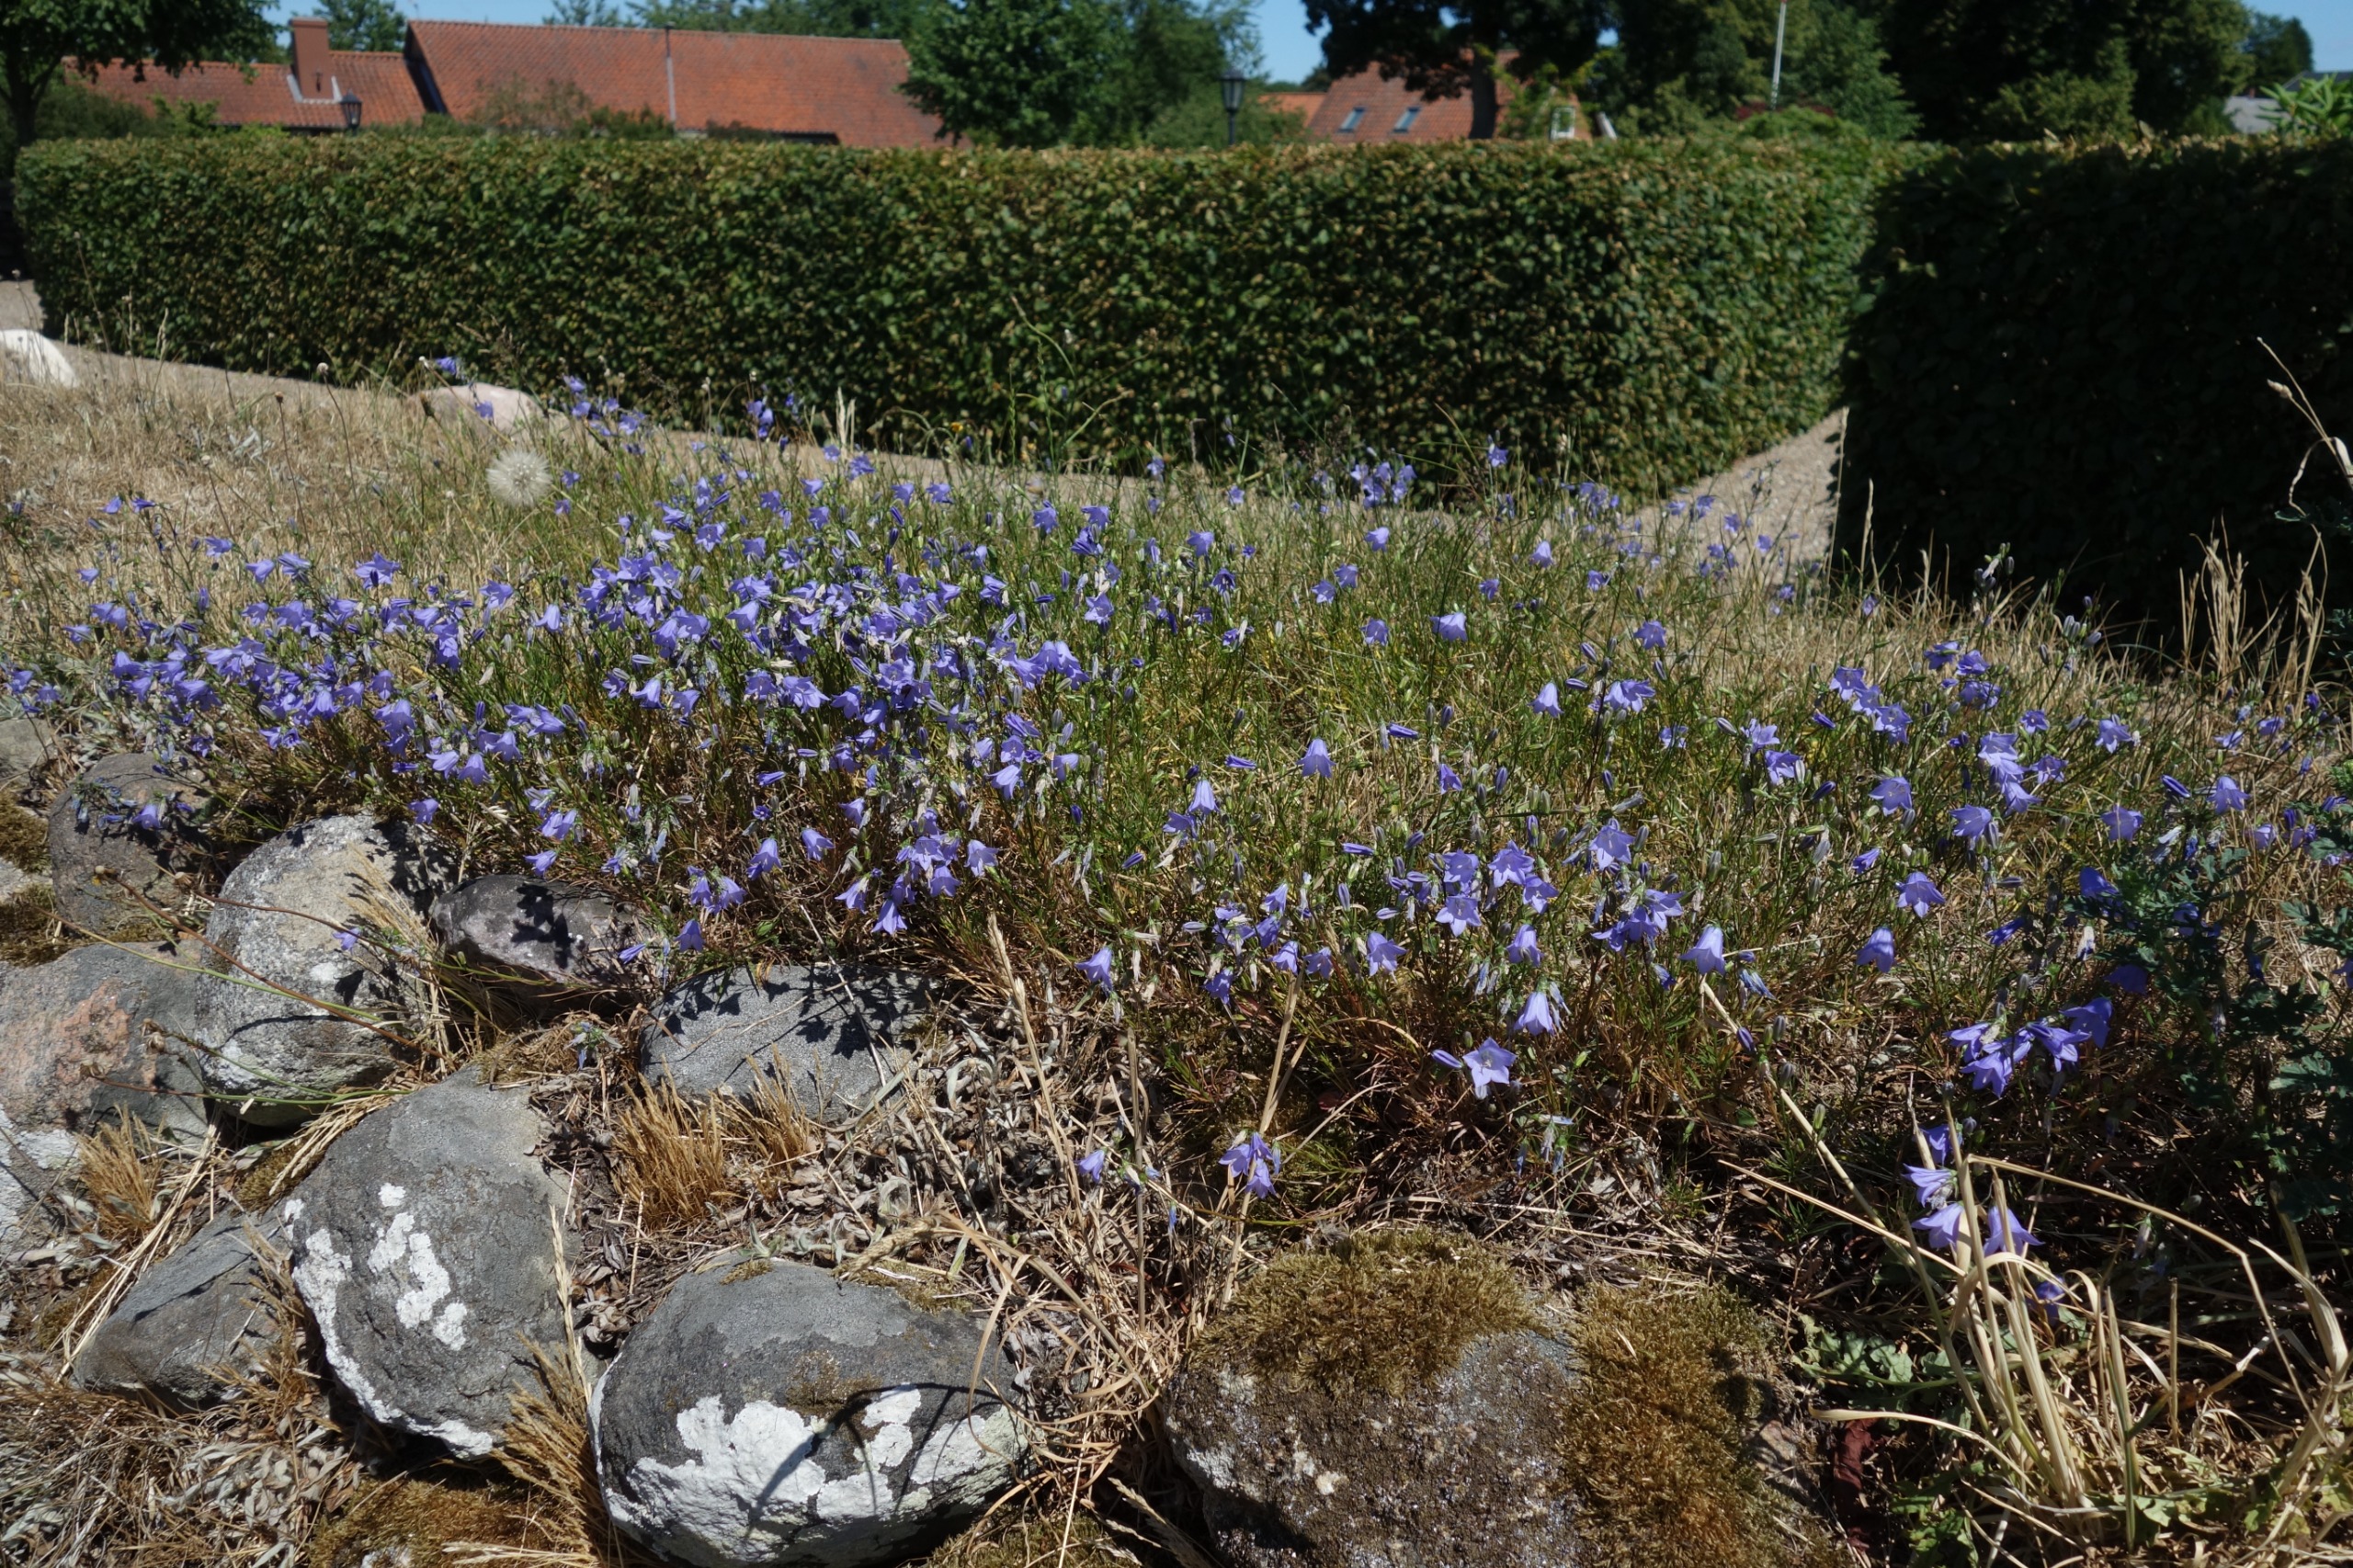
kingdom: Plantae
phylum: Tracheophyta
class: Magnoliopsida
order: Asterales
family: Campanulaceae
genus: Campanula
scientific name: Campanula rotundifolia
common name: Liden klokke
